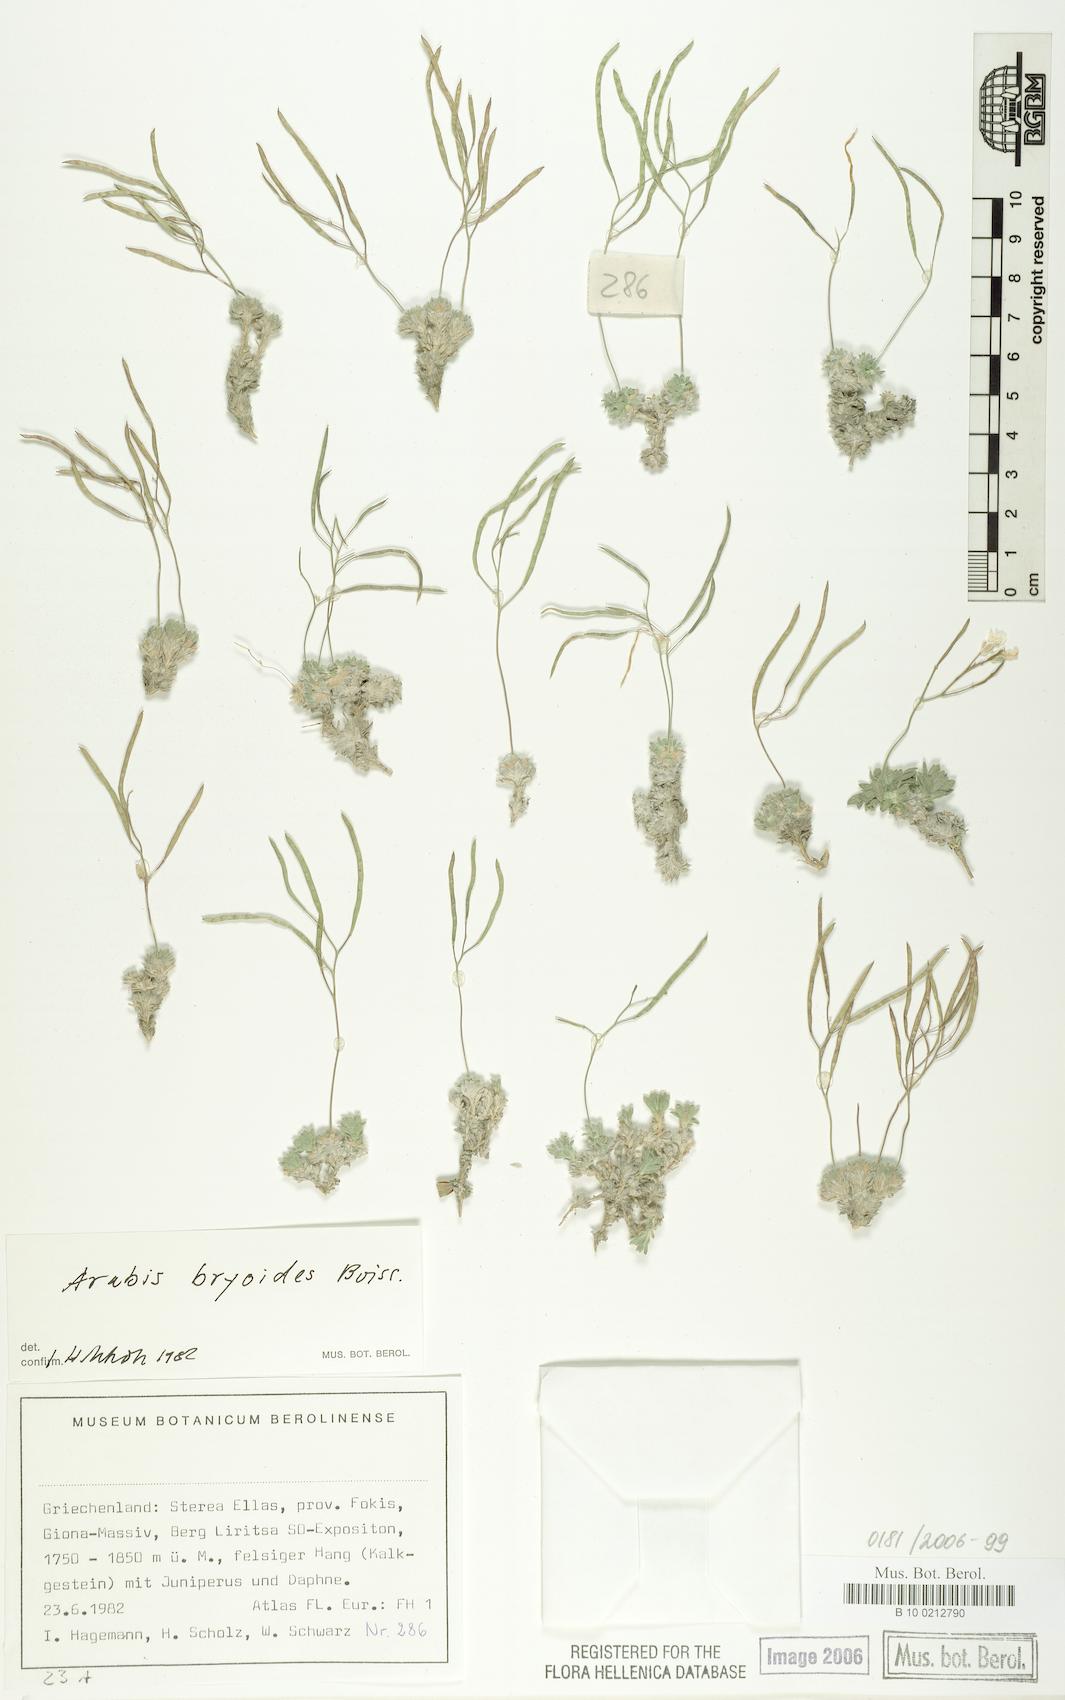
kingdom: Plantae
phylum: Tracheophyta
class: Magnoliopsida
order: Brassicales
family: Brassicaceae
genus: Arabis
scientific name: Arabis bryoides
